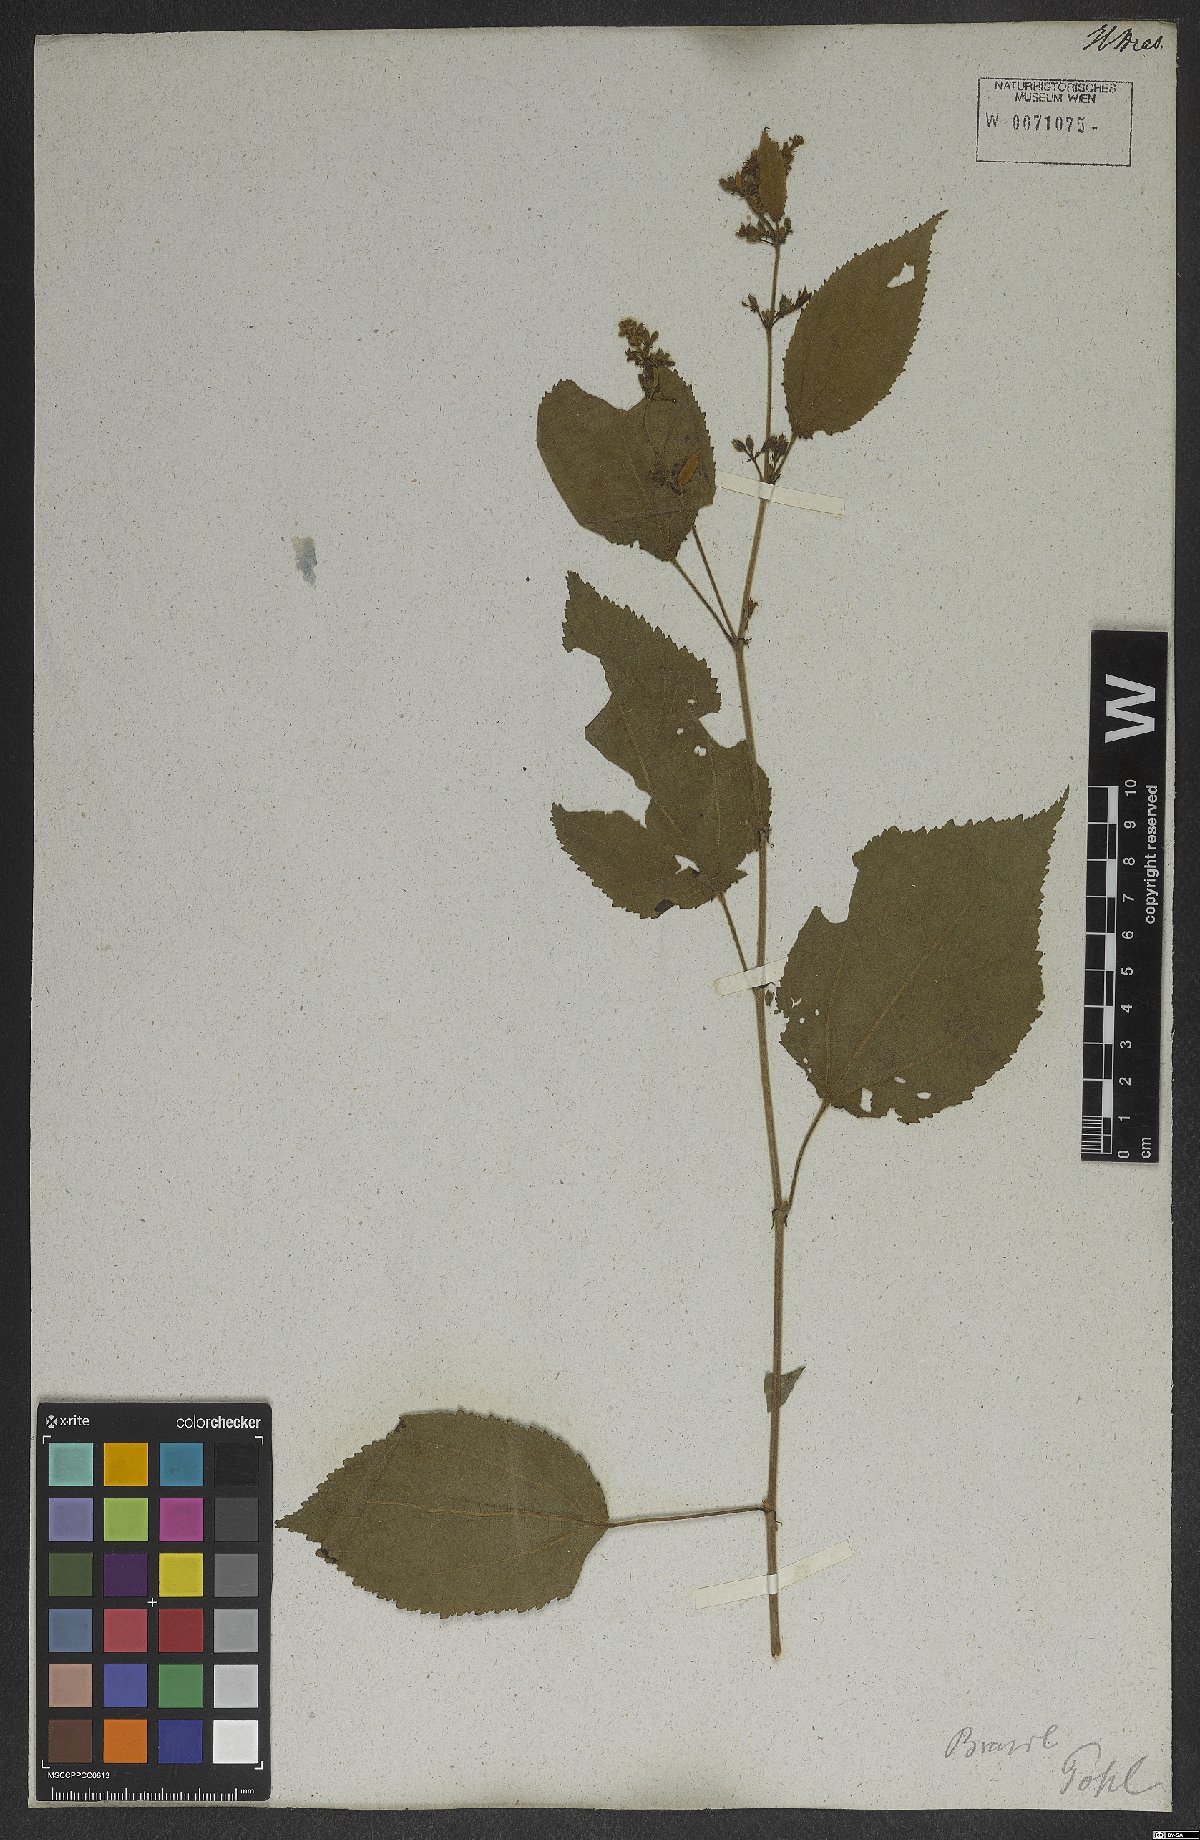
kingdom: Plantae
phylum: Tracheophyta
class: Magnoliopsida
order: Malvales
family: Malvaceae
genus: Triumfetta
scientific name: Triumfetta mollissima
